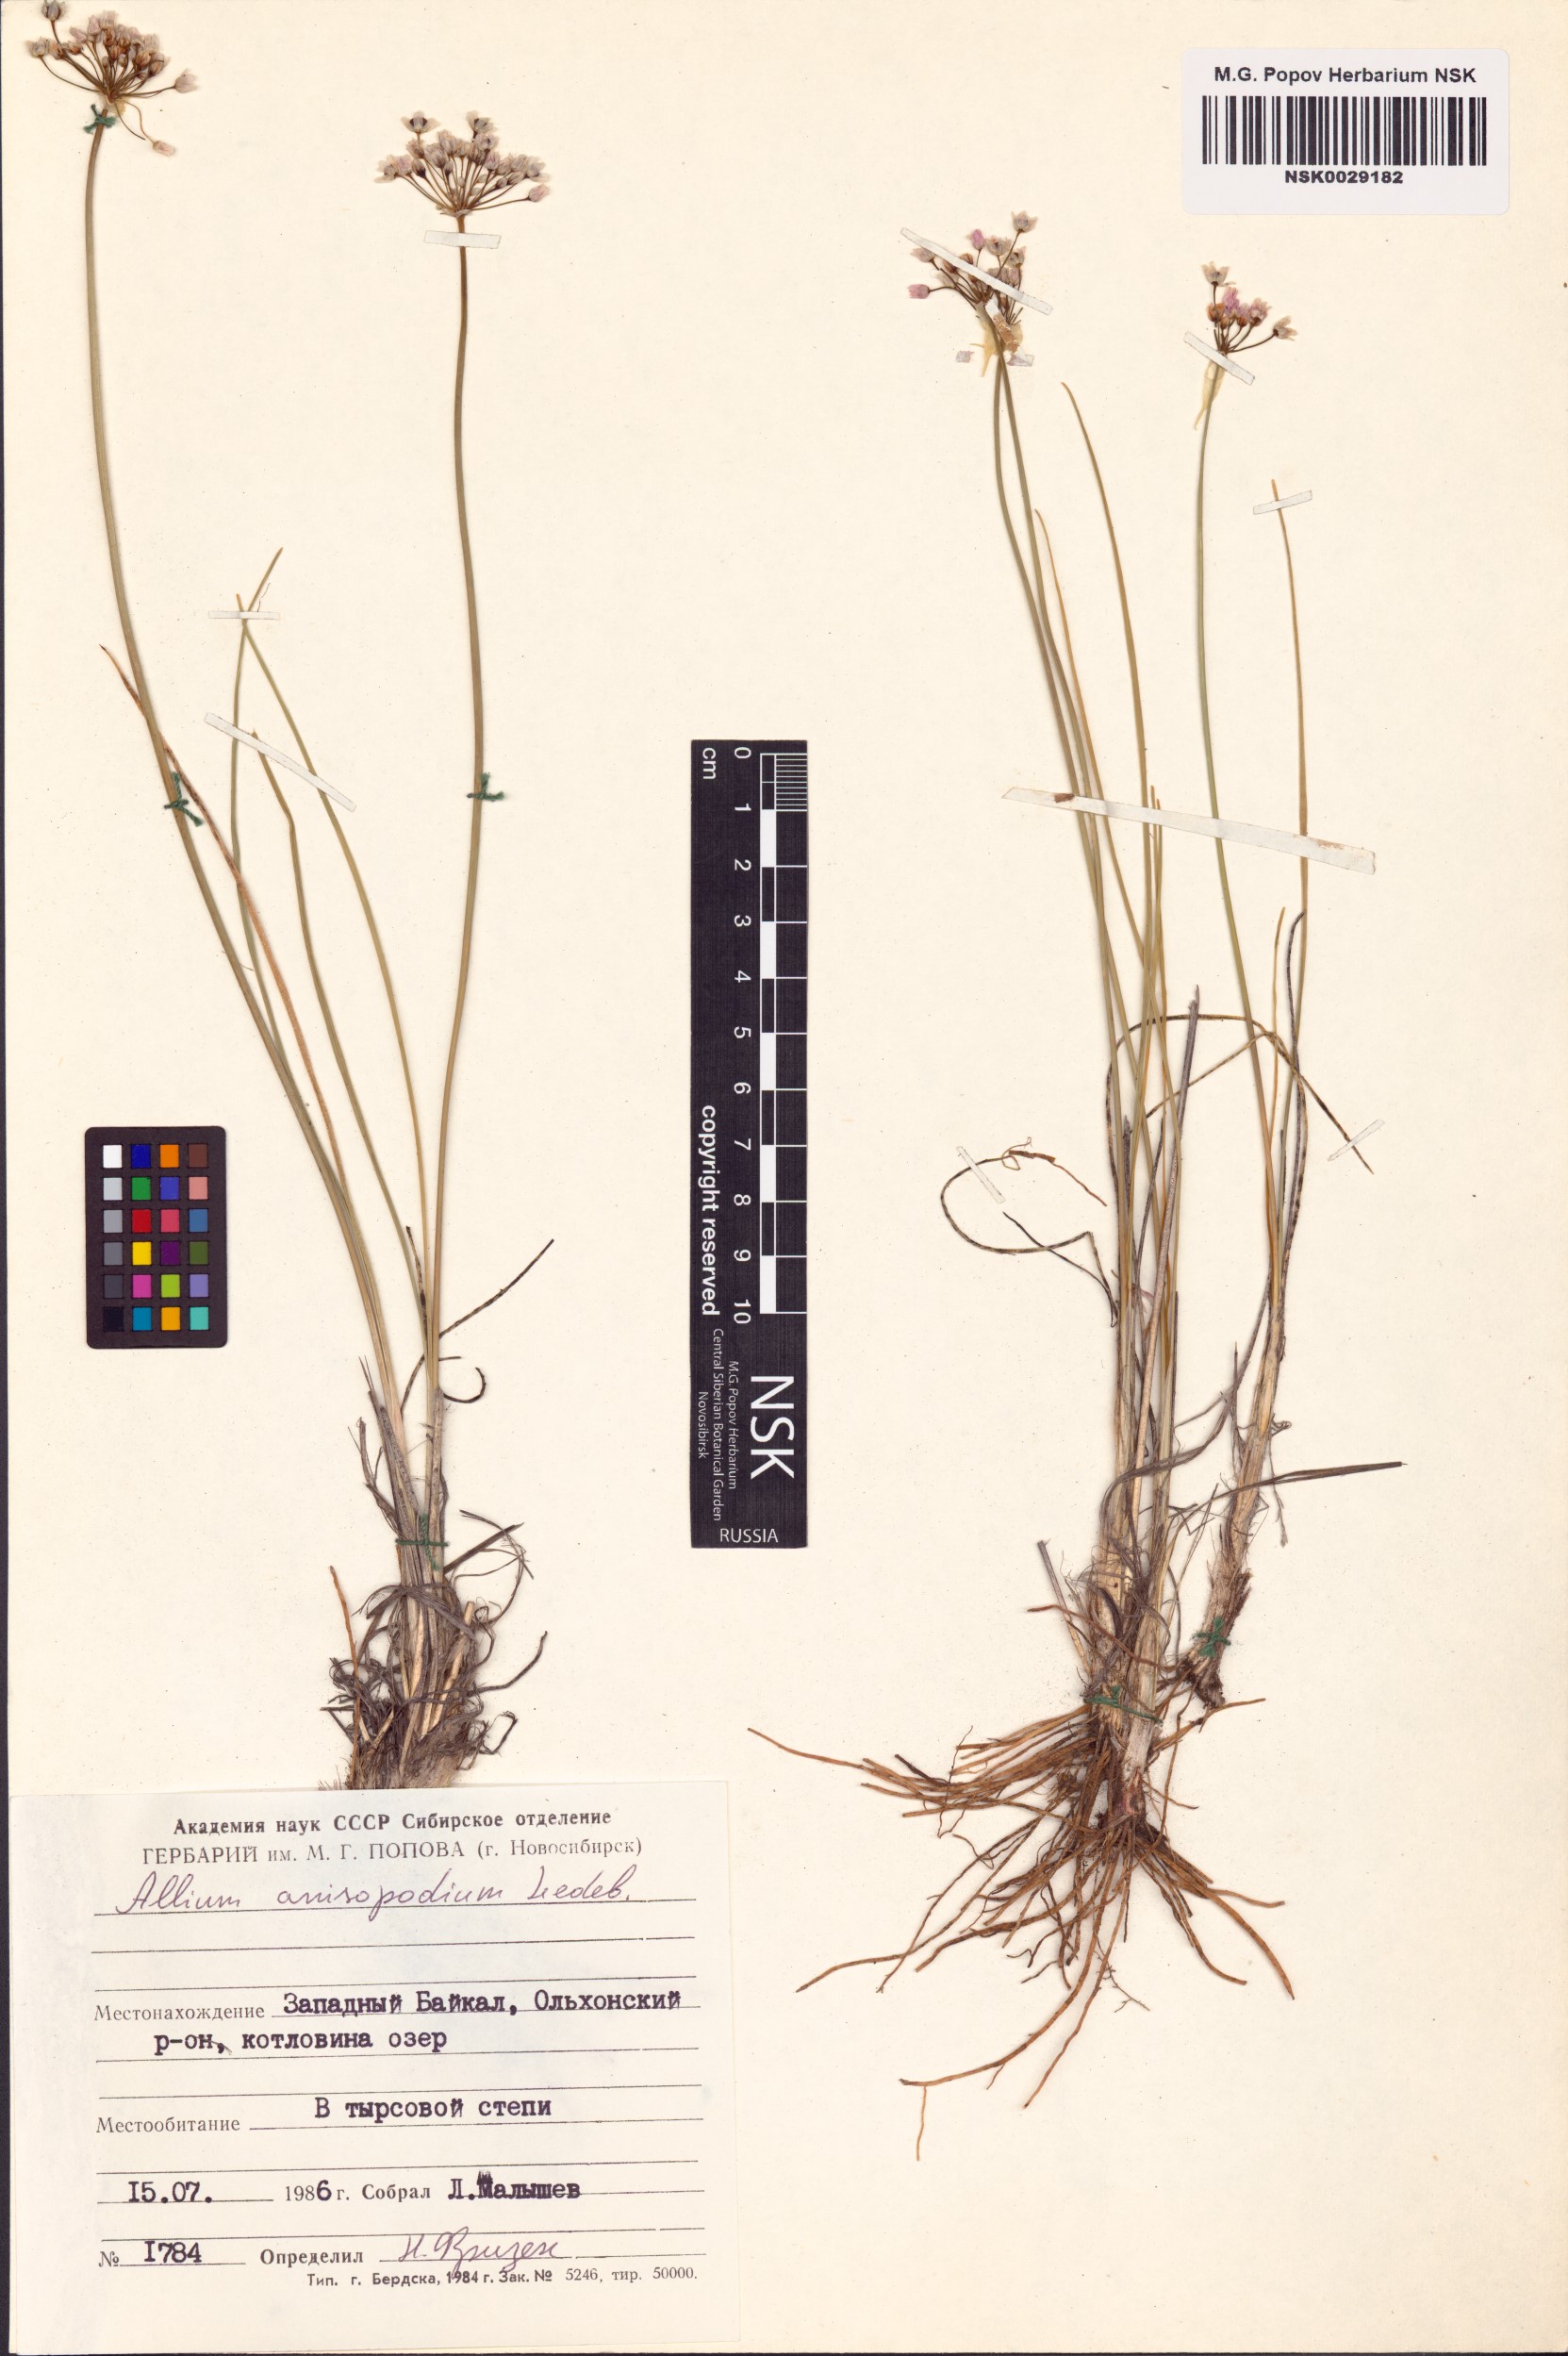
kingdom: Plantae
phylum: Tracheophyta
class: Liliopsida
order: Asparagales
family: Amaryllidaceae
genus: Allium
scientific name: Allium anisopodium
